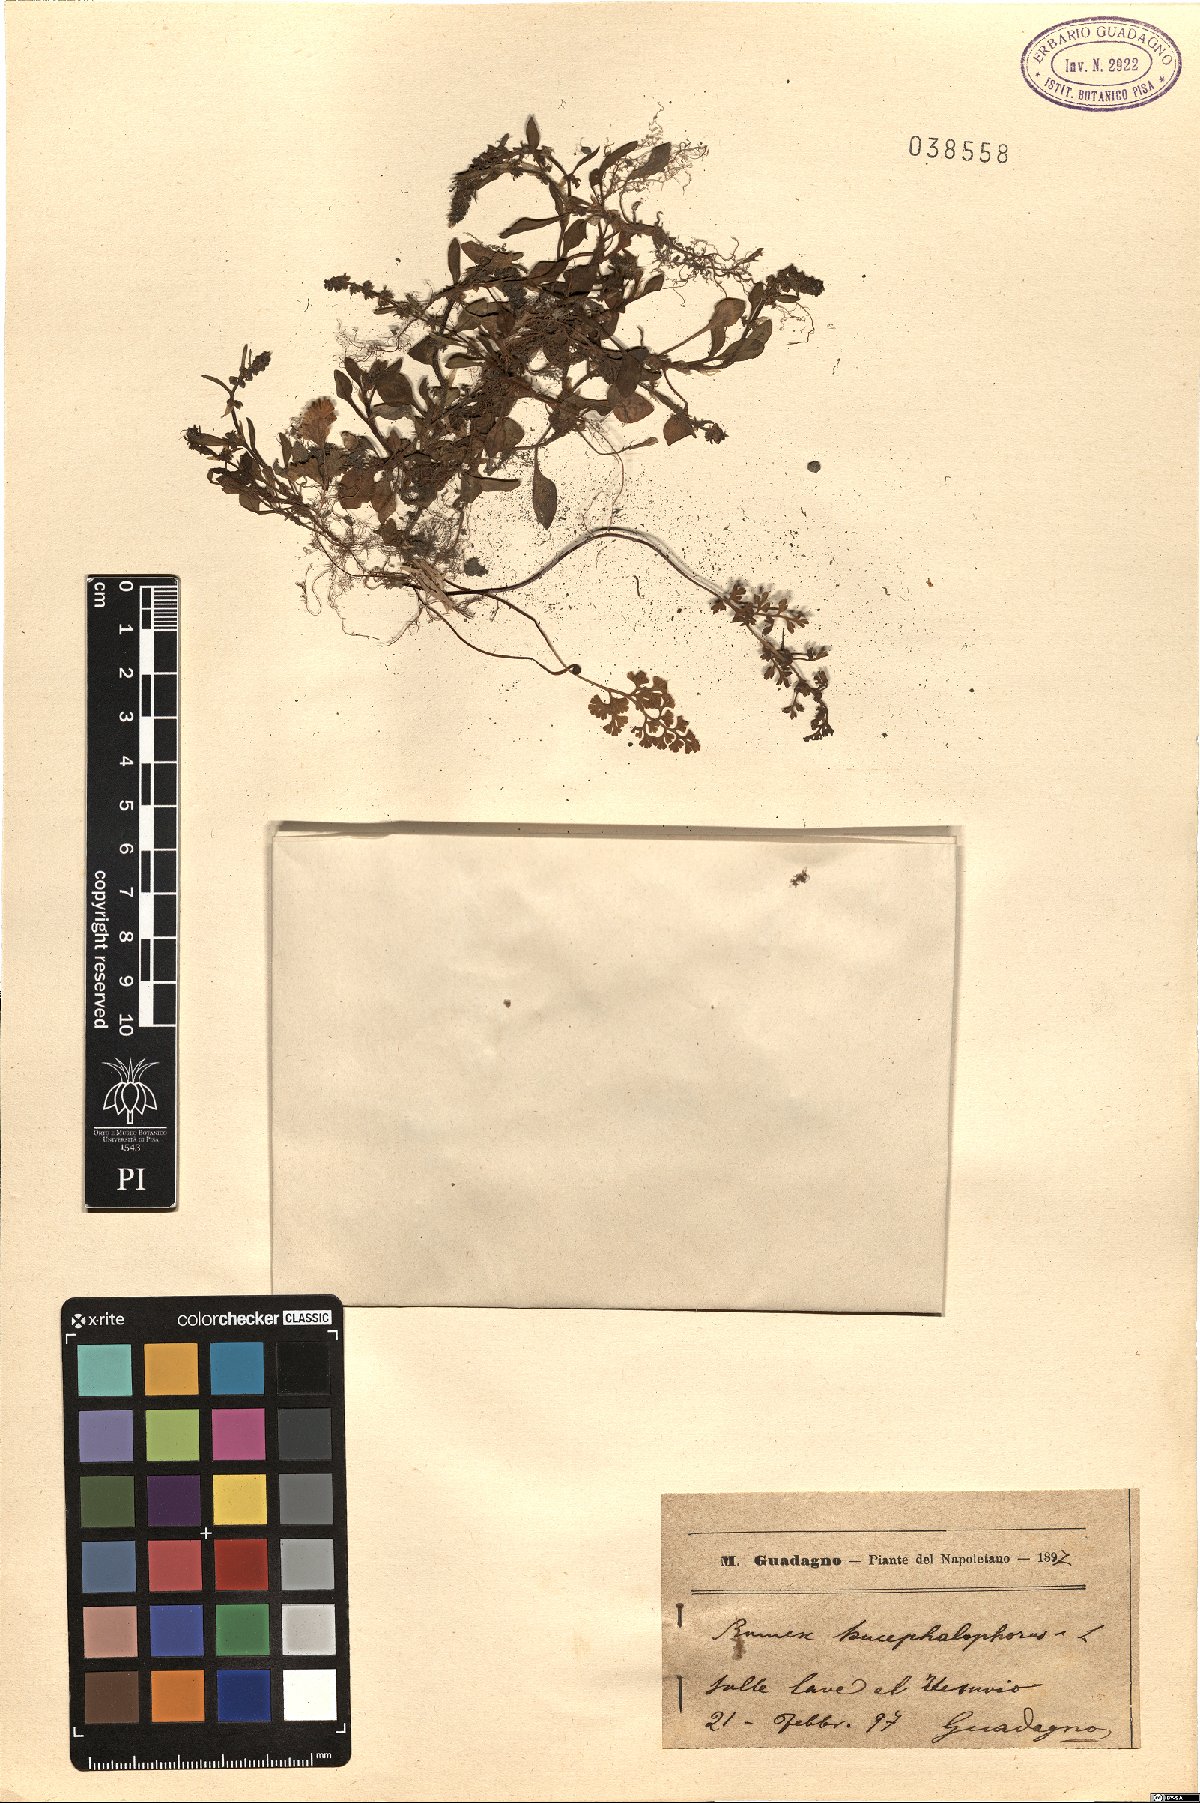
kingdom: Plantae
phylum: Tracheophyta
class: Magnoliopsida
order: Caryophyllales
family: Polygonaceae
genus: Rumex
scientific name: Rumex bucephalophorus
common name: Red dock
